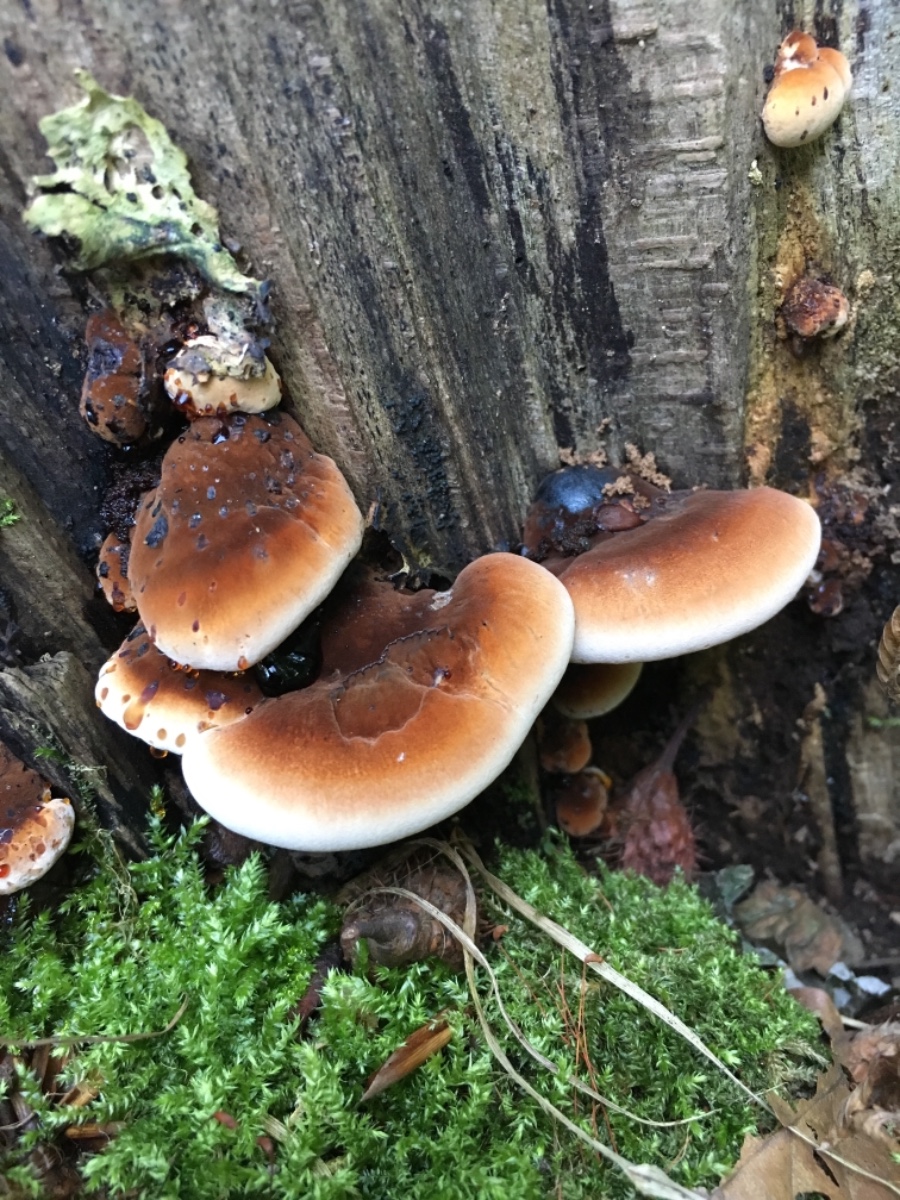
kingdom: Fungi
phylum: Basidiomycota
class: Agaricomycetes
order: Polyporales
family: Ischnodermataceae
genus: Ischnoderma
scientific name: Ischnoderma resinosum
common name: løv-tjæreporesvamp
